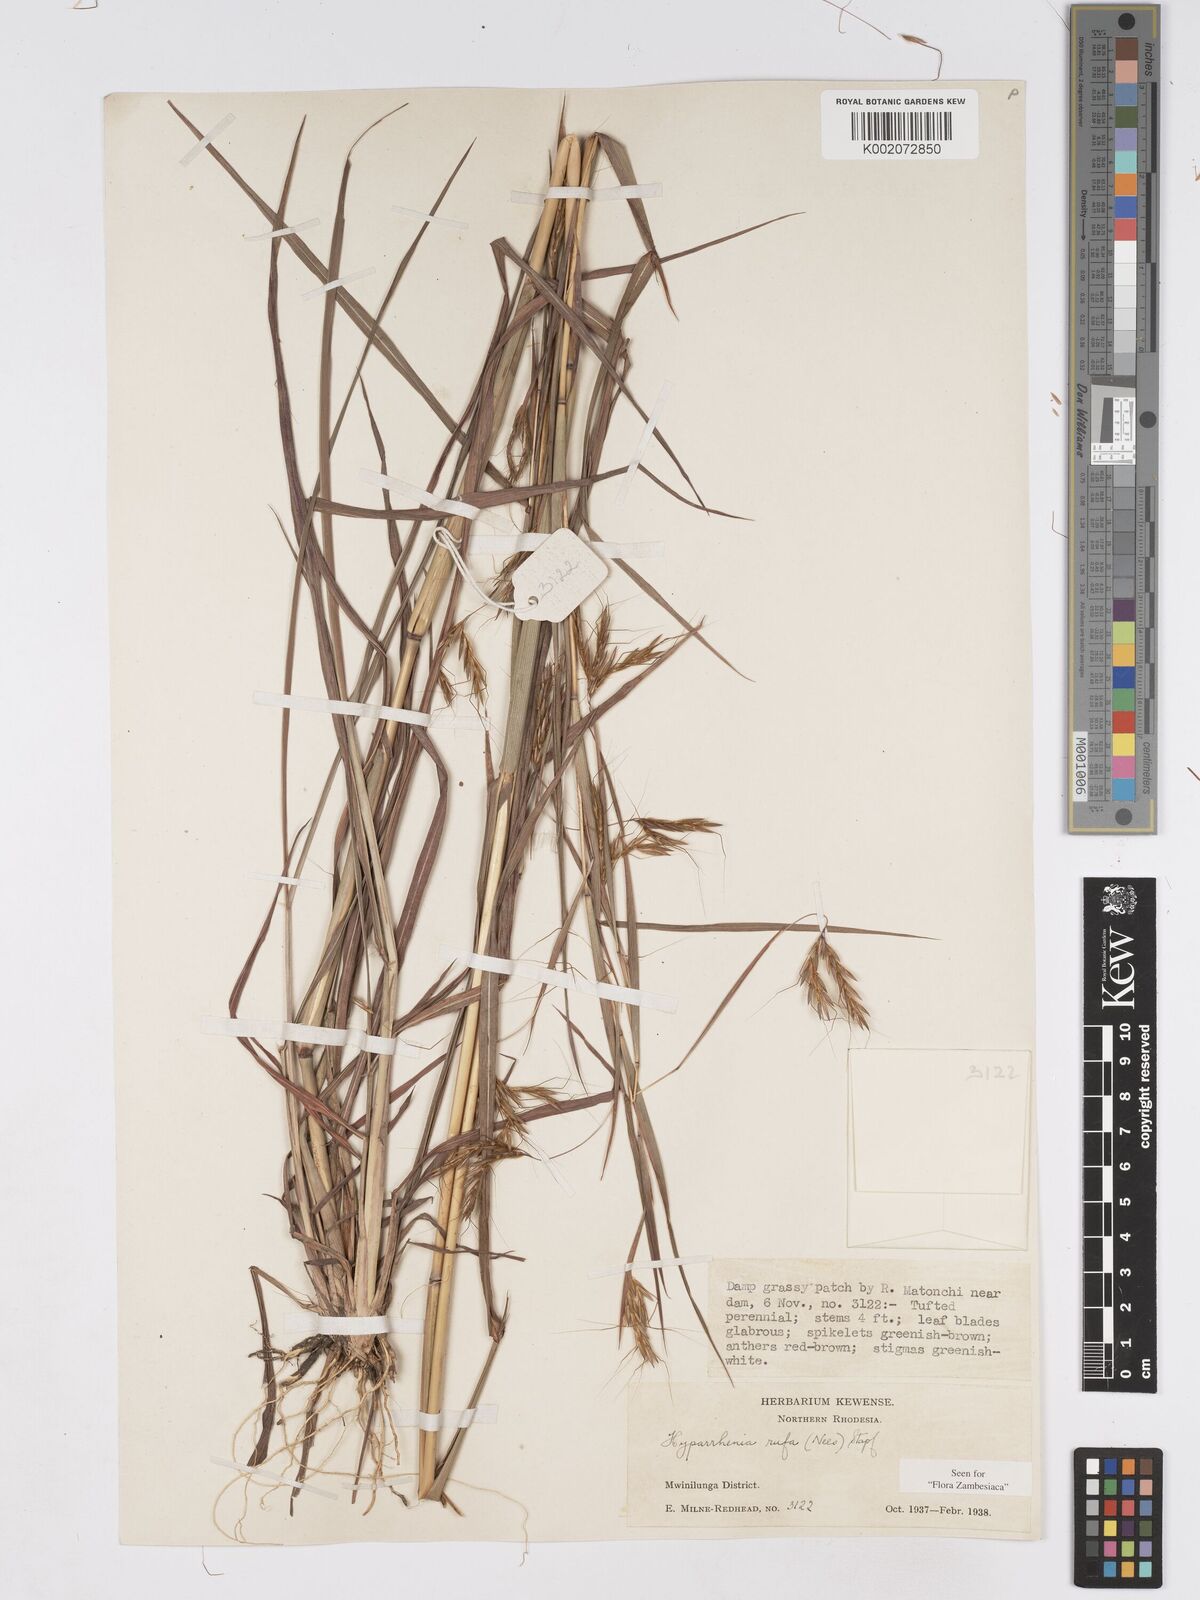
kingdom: Plantae
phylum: Tracheophyta
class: Liliopsida
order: Poales
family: Poaceae
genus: Hyparrhenia
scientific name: Hyparrhenia rufa
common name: Jaraguagrass
